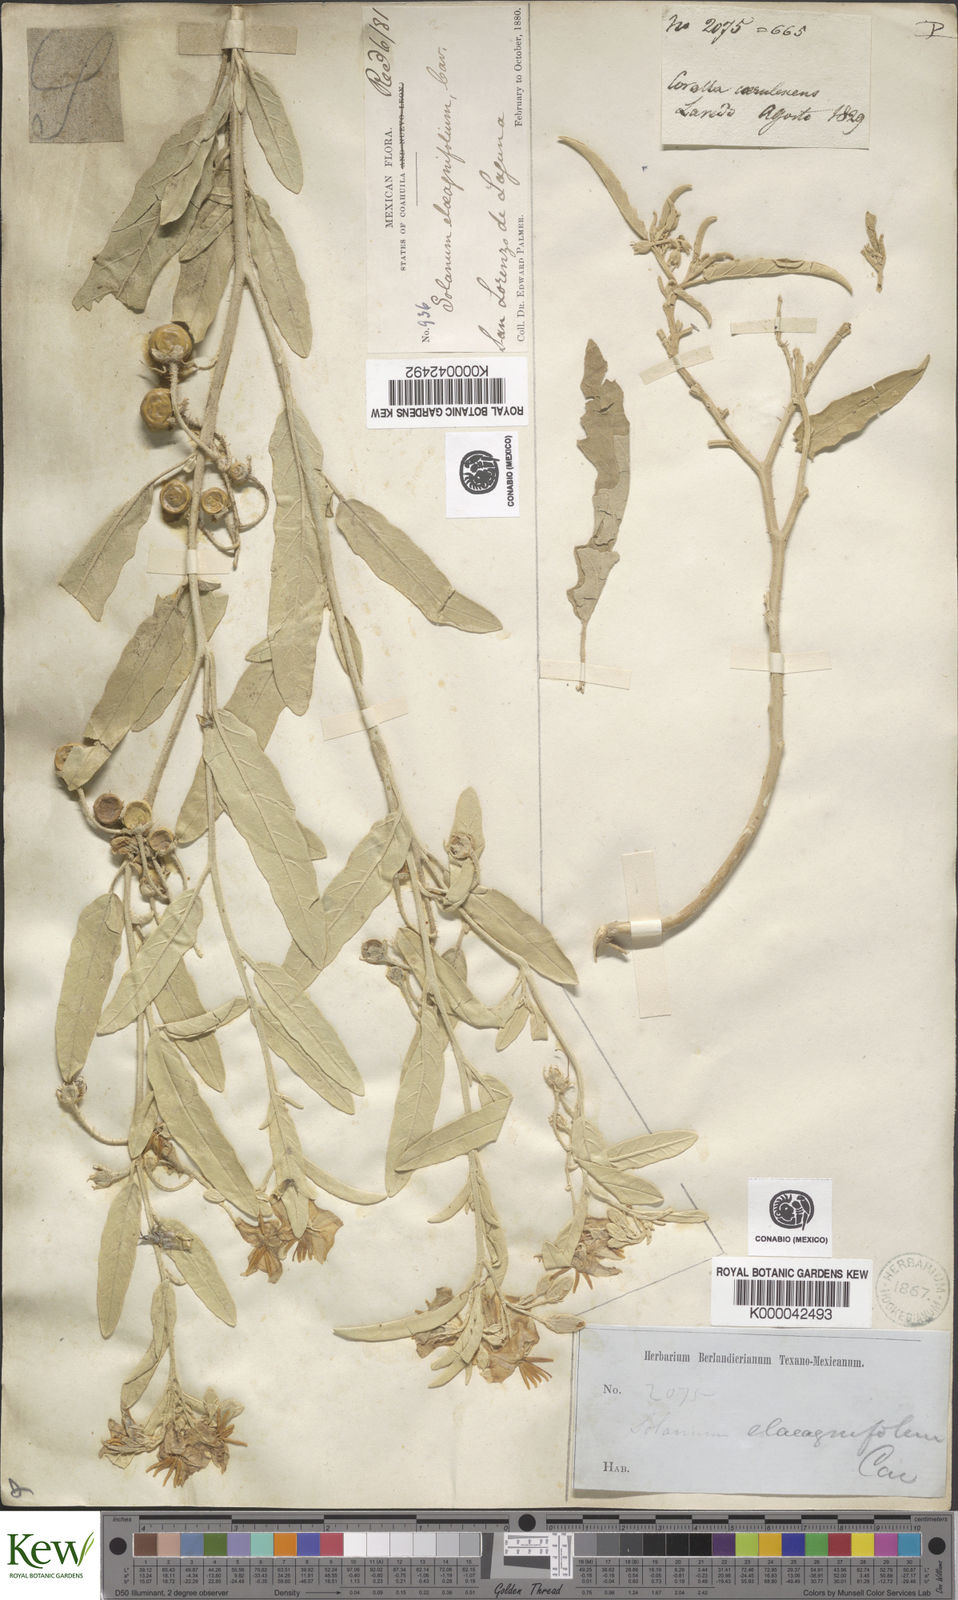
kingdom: Plantae
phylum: Tracheophyta
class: Magnoliopsida
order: Solanales
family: Solanaceae
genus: Solanum
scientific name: Solanum elaeagnifolium
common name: Silverleaf nightshade
